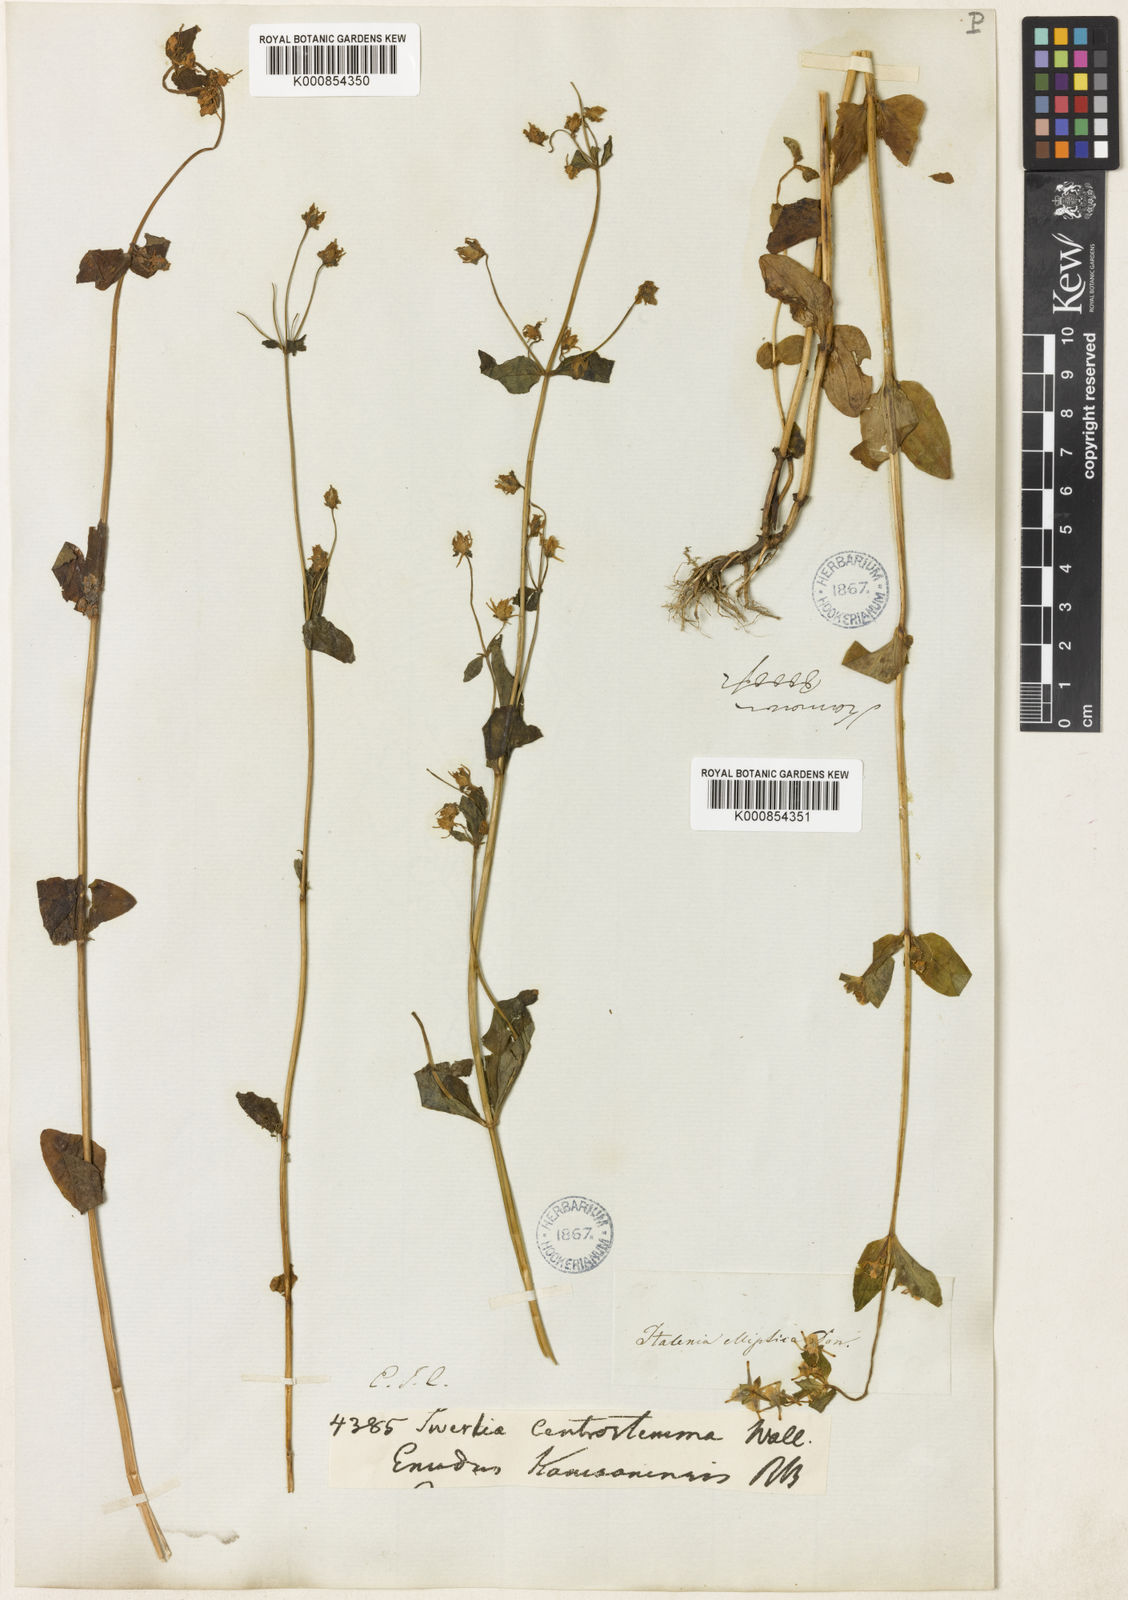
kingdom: Plantae
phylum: Tracheophyta
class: Magnoliopsida
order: Gentianales
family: Gentianaceae
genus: Halenia
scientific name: Halenia elliptica
